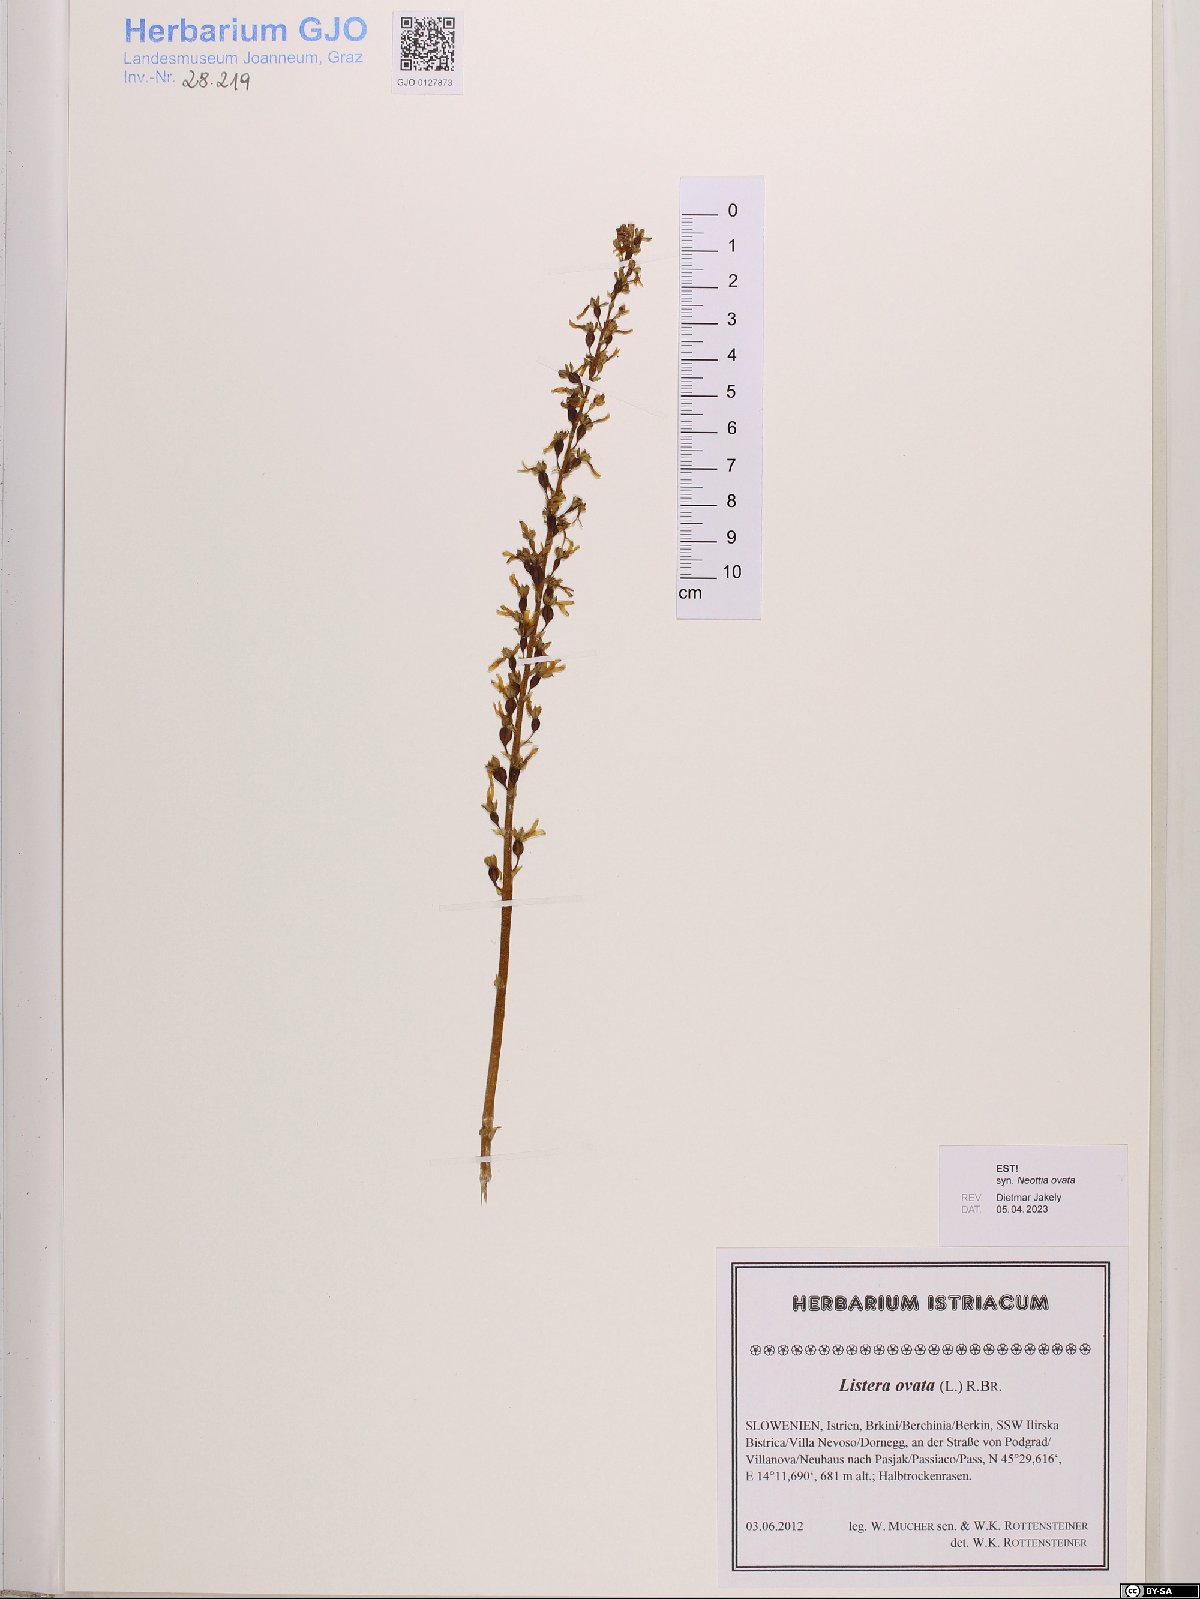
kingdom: Plantae
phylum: Tracheophyta
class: Liliopsida
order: Asparagales
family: Orchidaceae
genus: Neottia
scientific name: Neottia ovata
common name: Common twayblade
